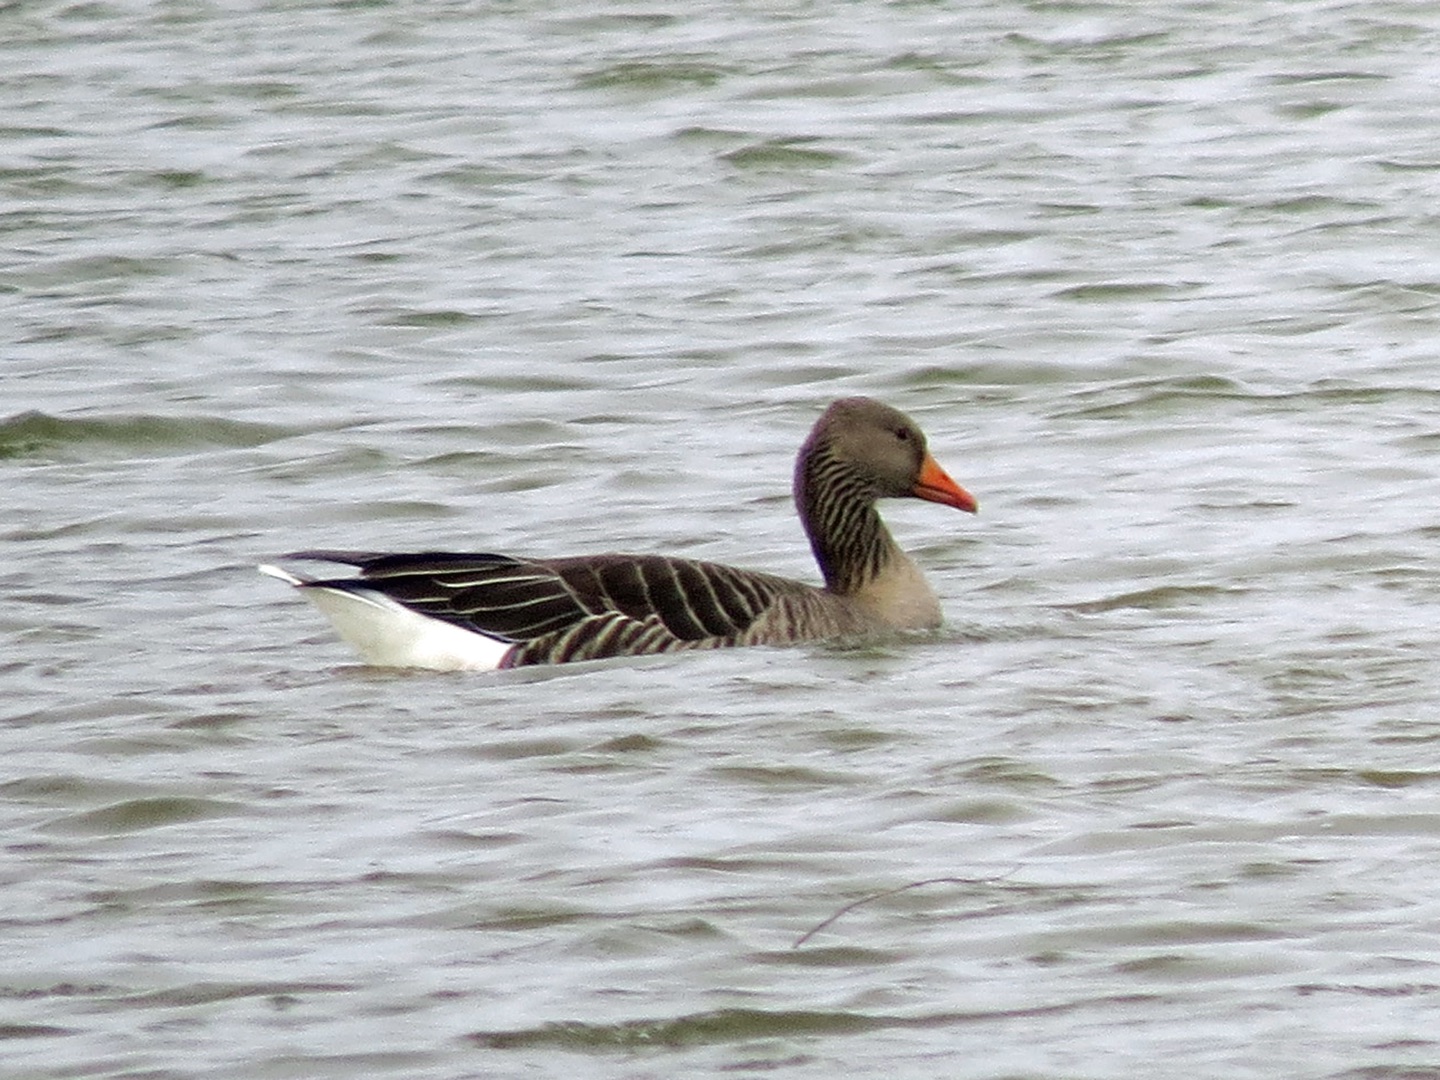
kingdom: Animalia
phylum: Chordata
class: Aves
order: Anseriformes
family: Anatidae
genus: Anser
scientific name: Anser anser
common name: Grågås
